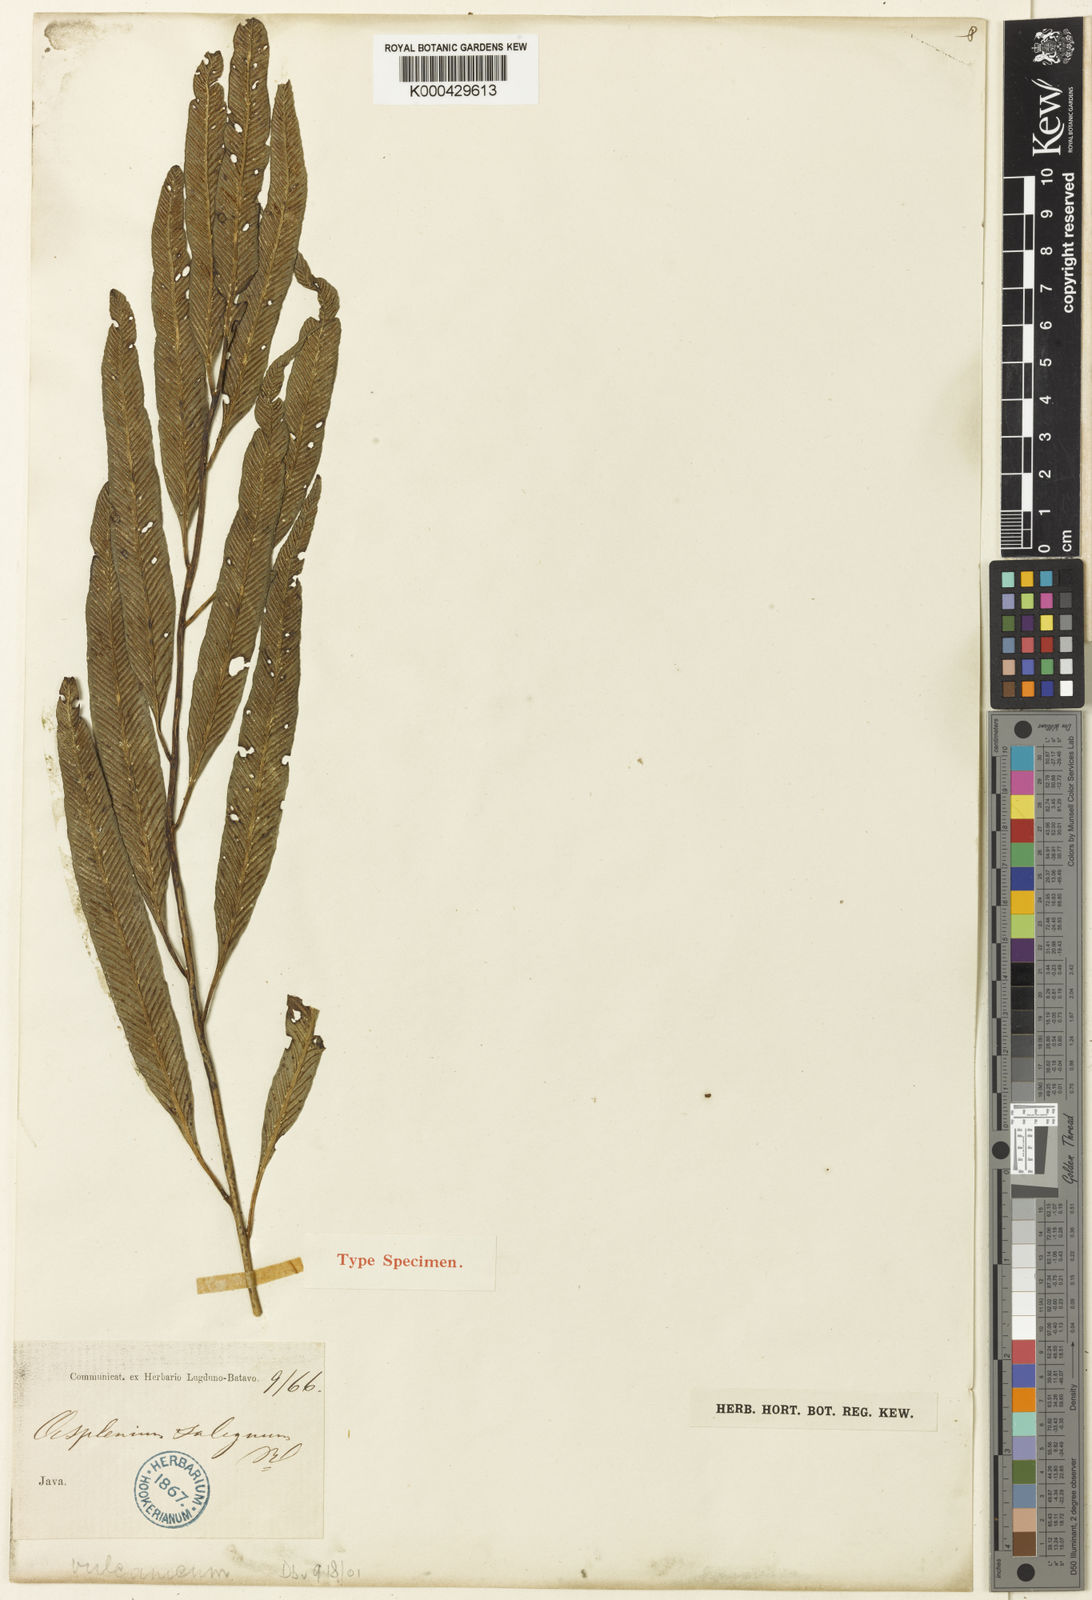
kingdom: Plantae
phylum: Tracheophyta
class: Polypodiopsida
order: Polypodiales
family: Aspleniaceae
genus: Asplenium
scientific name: Asplenium vulcanicum
